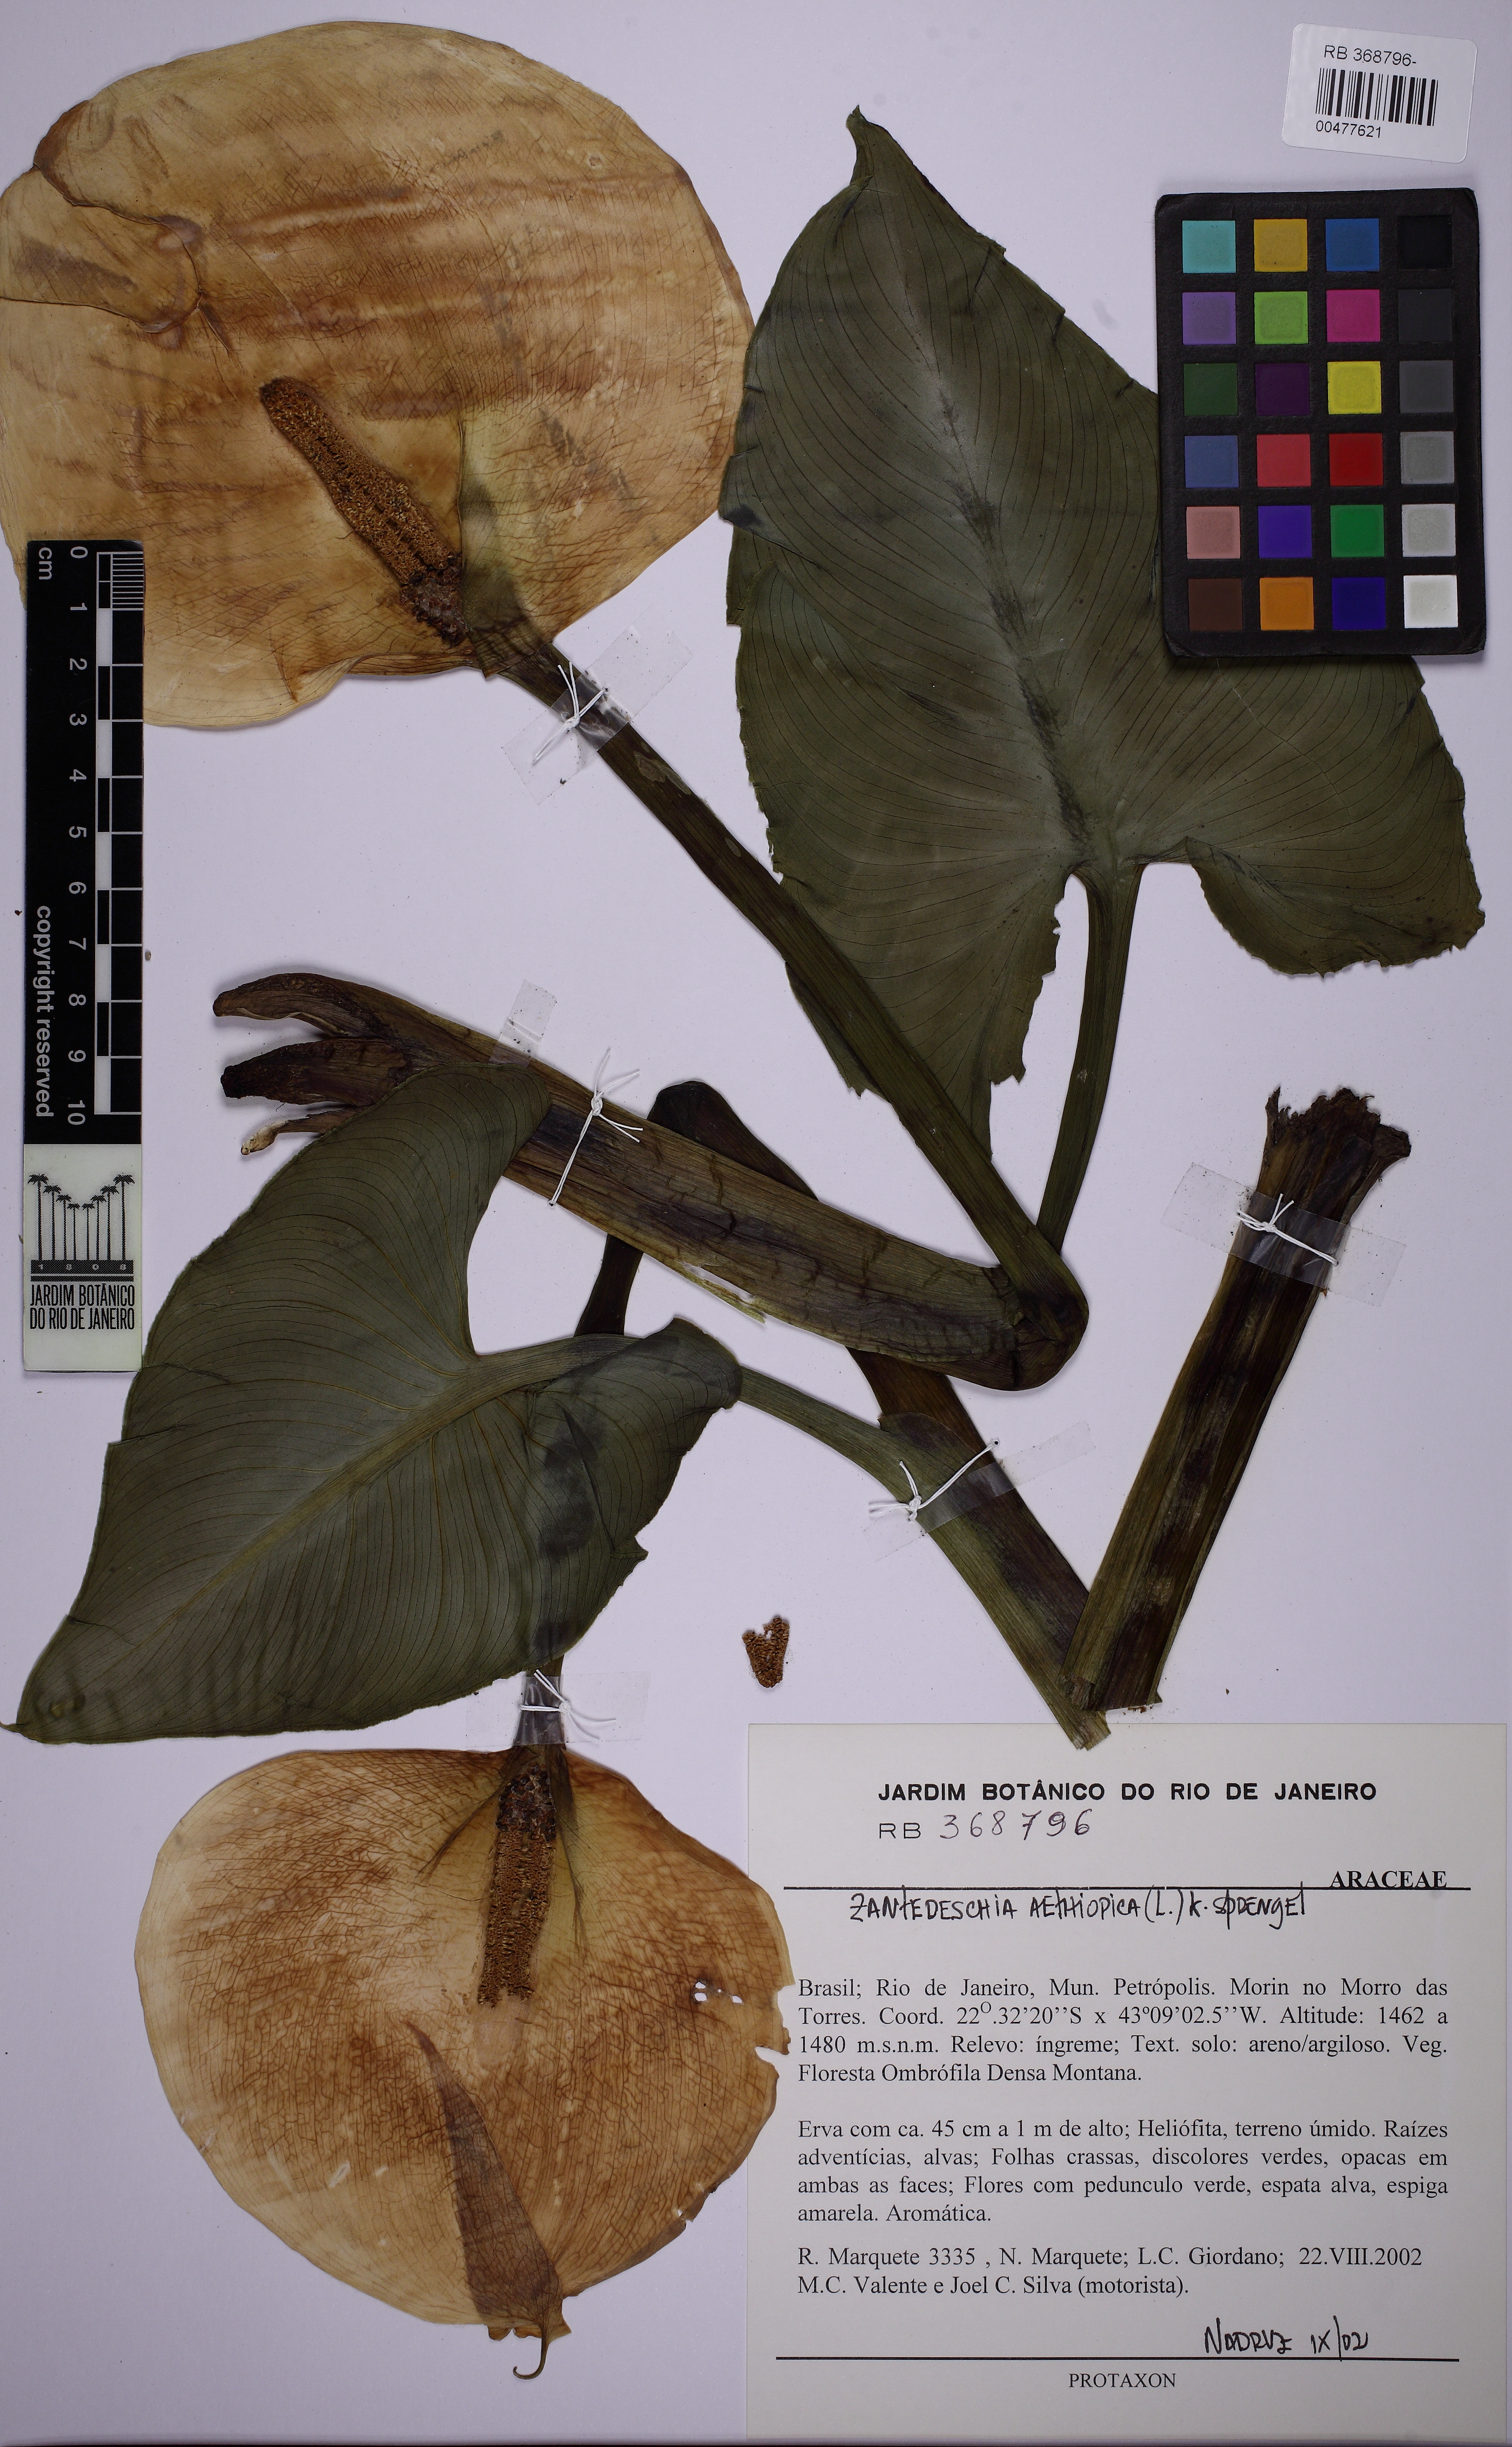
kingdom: Plantae
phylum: Tracheophyta
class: Liliopsida
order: Alismatales
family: Araceae
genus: Zantedeschia
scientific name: Zantedeschia aethiopica
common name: Altar-lily
